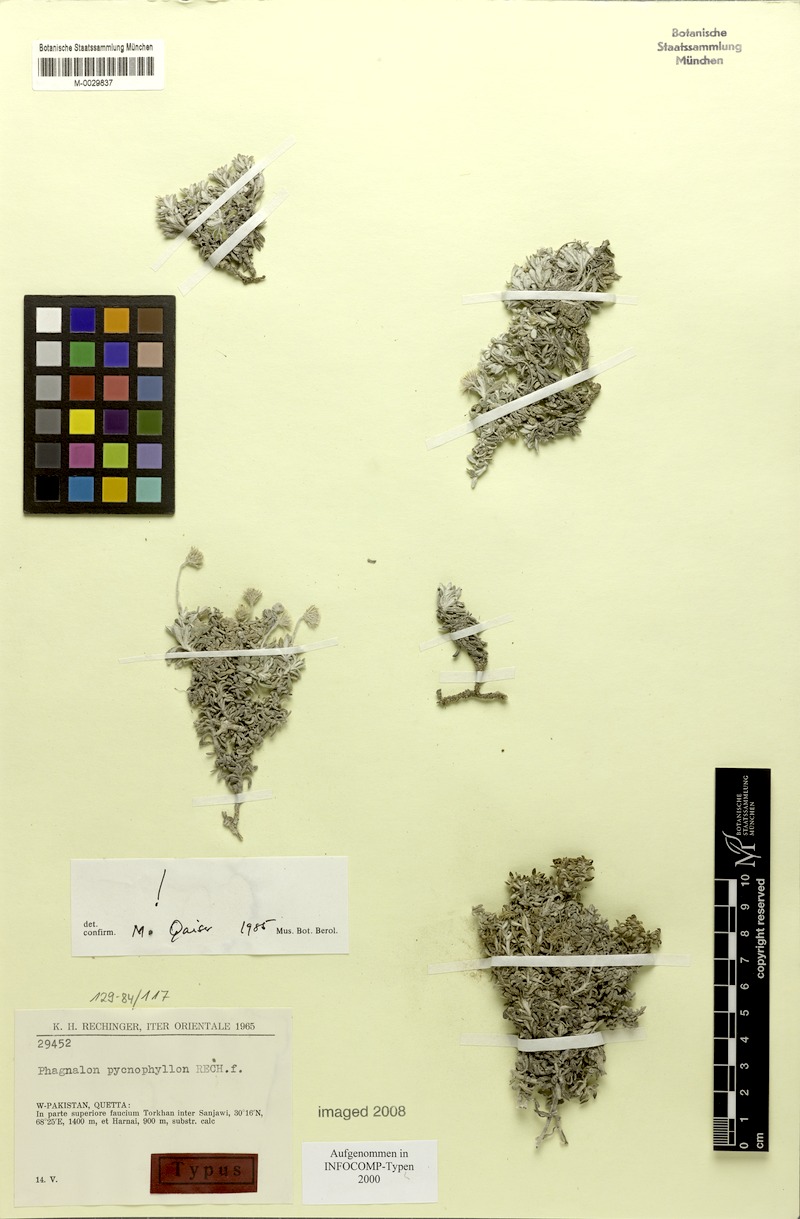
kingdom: Plantae
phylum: Tracheophyta
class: Magnoliopsida
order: Asterales
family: Asteraceae
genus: Phagnalon
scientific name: Phagnalon pycnophyllon
